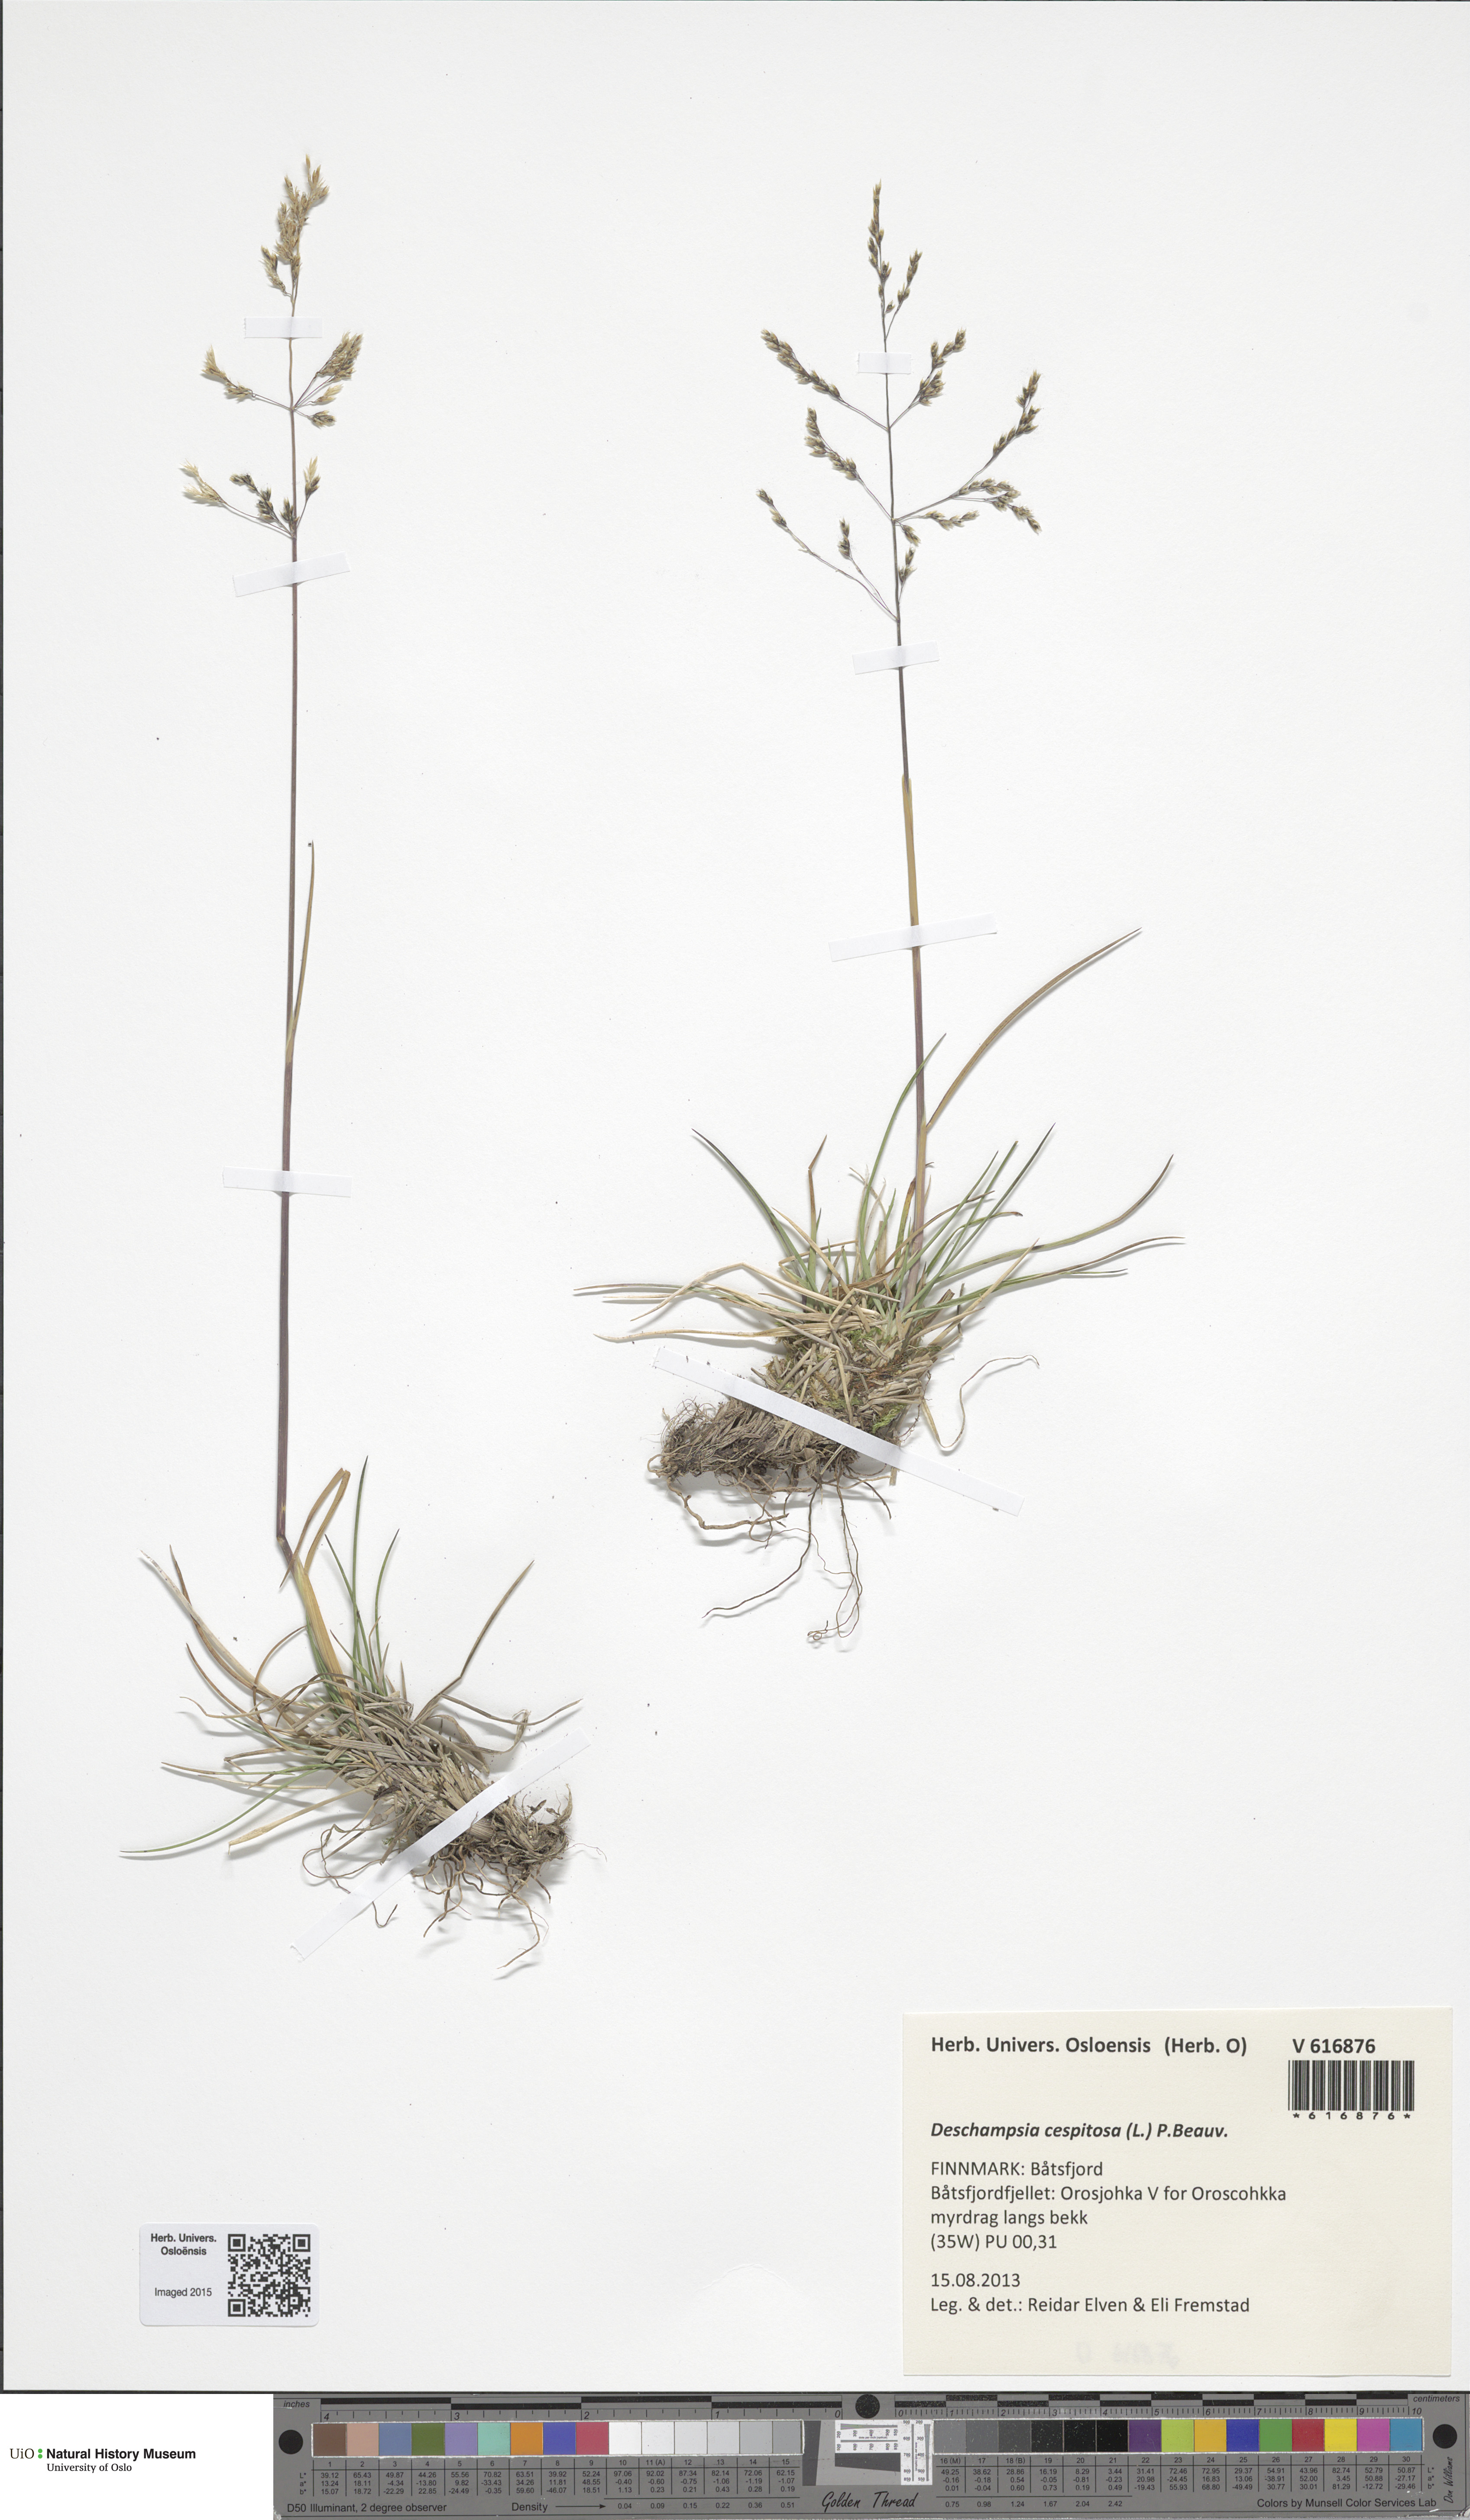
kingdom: Plantae
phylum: Tracheophyta
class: Liliopsida
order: Poales
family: Poaceae
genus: Deschampsia
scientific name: Deschampsia cespitosa
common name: Tufted hair-grass
